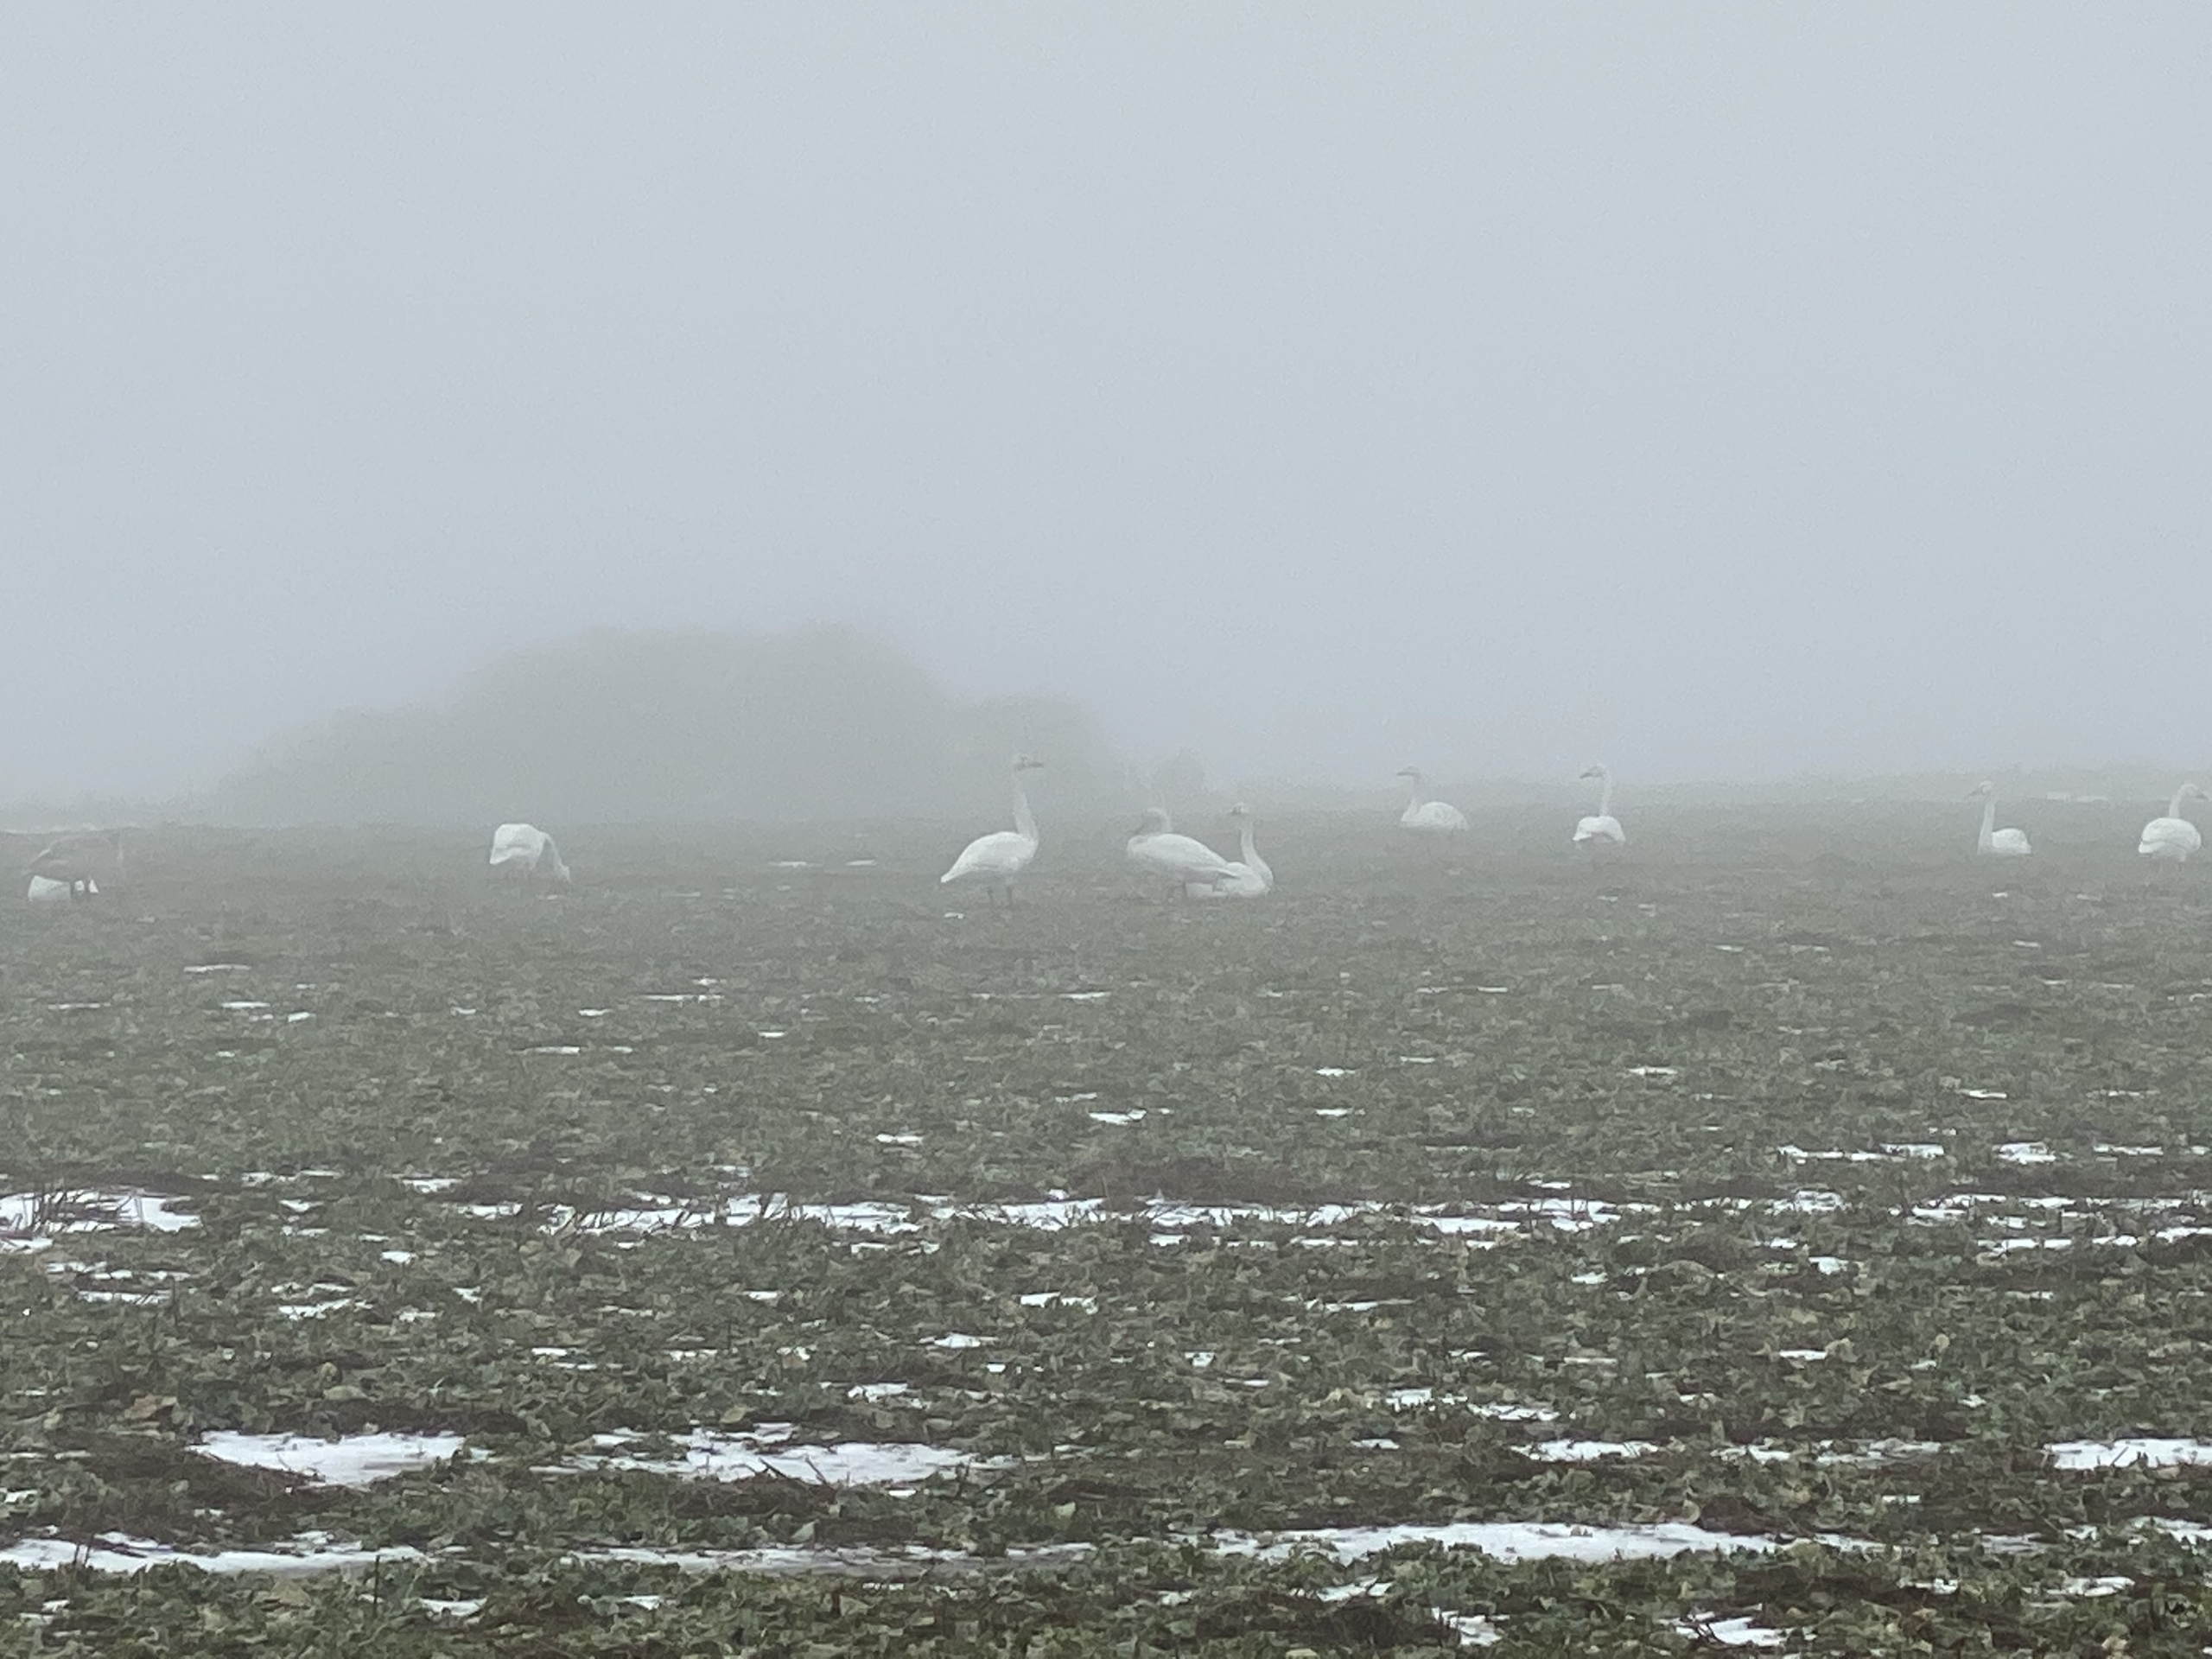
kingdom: Animalia
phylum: Chordata
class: Aves
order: Anseriformes
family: Anatidae
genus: Cygnus
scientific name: Cygnus cygnus
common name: Sangsvane
